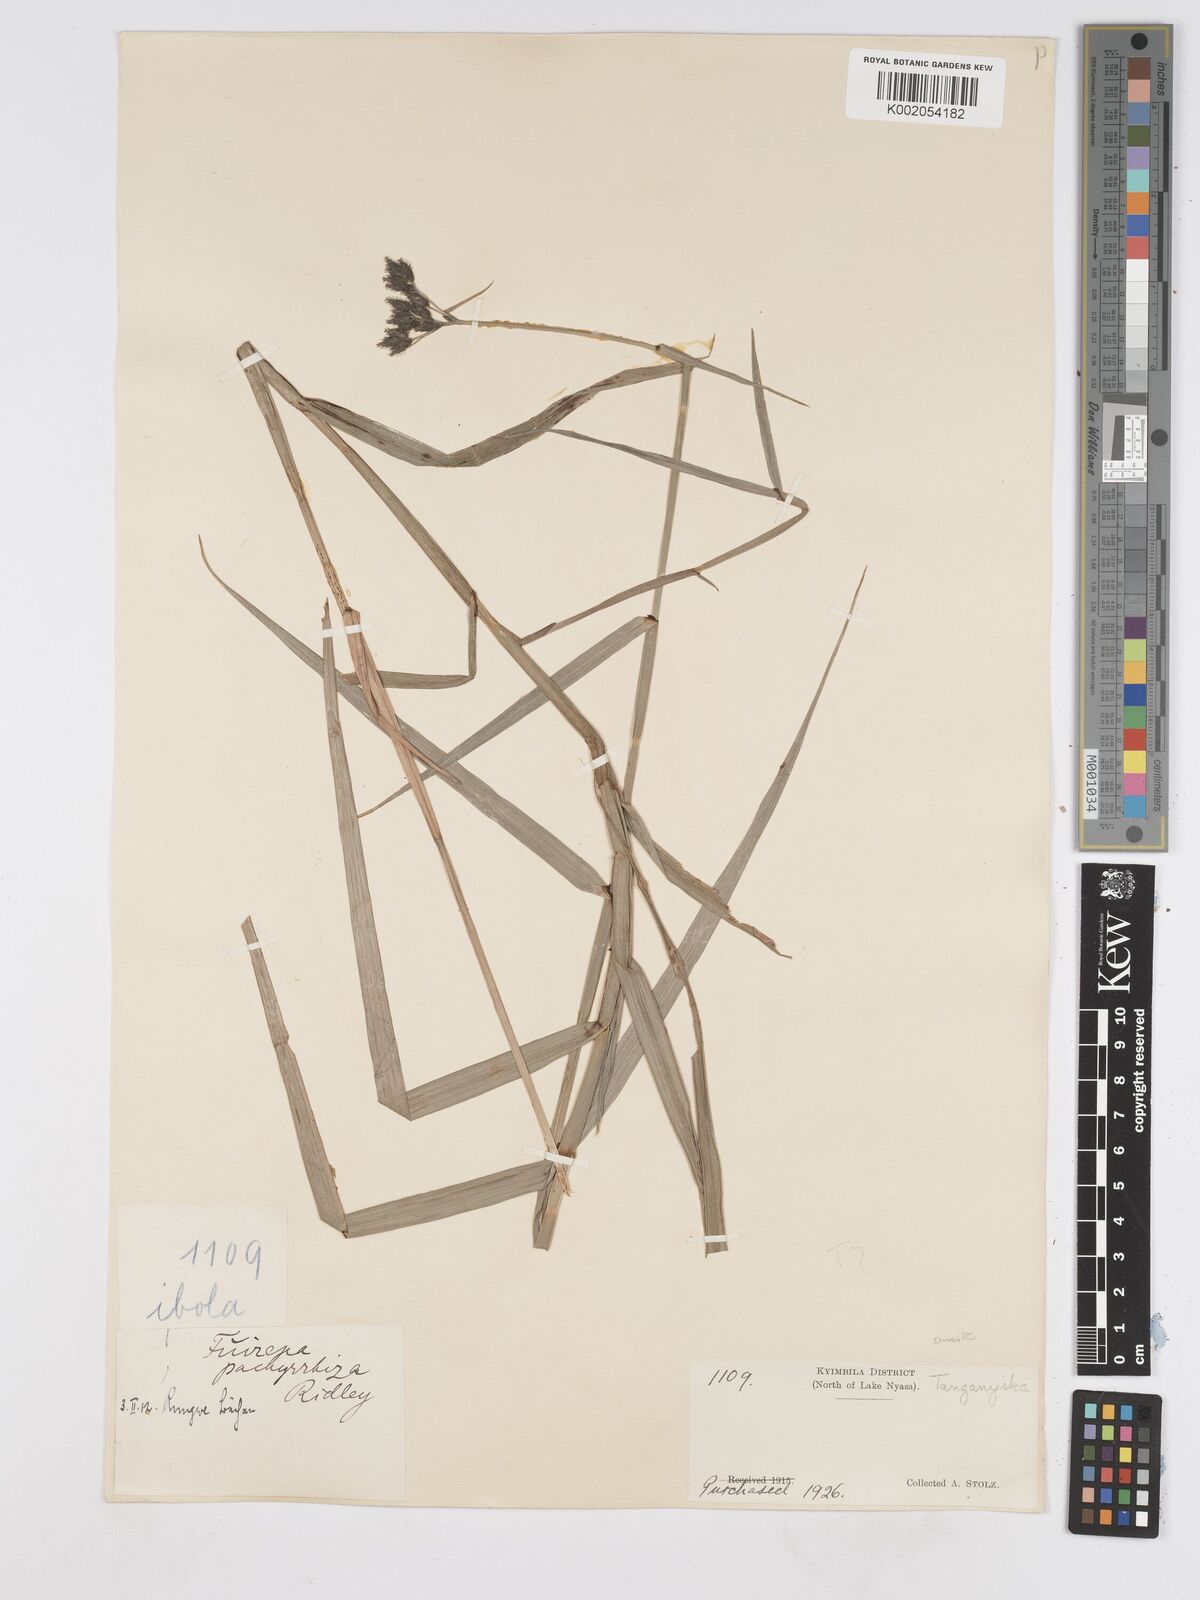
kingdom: Plantae
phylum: Tracheophyta
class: Liliopsida
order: Poales
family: Cyperaceae
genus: Fuirena
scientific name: Fuirena pachyrrhiza
